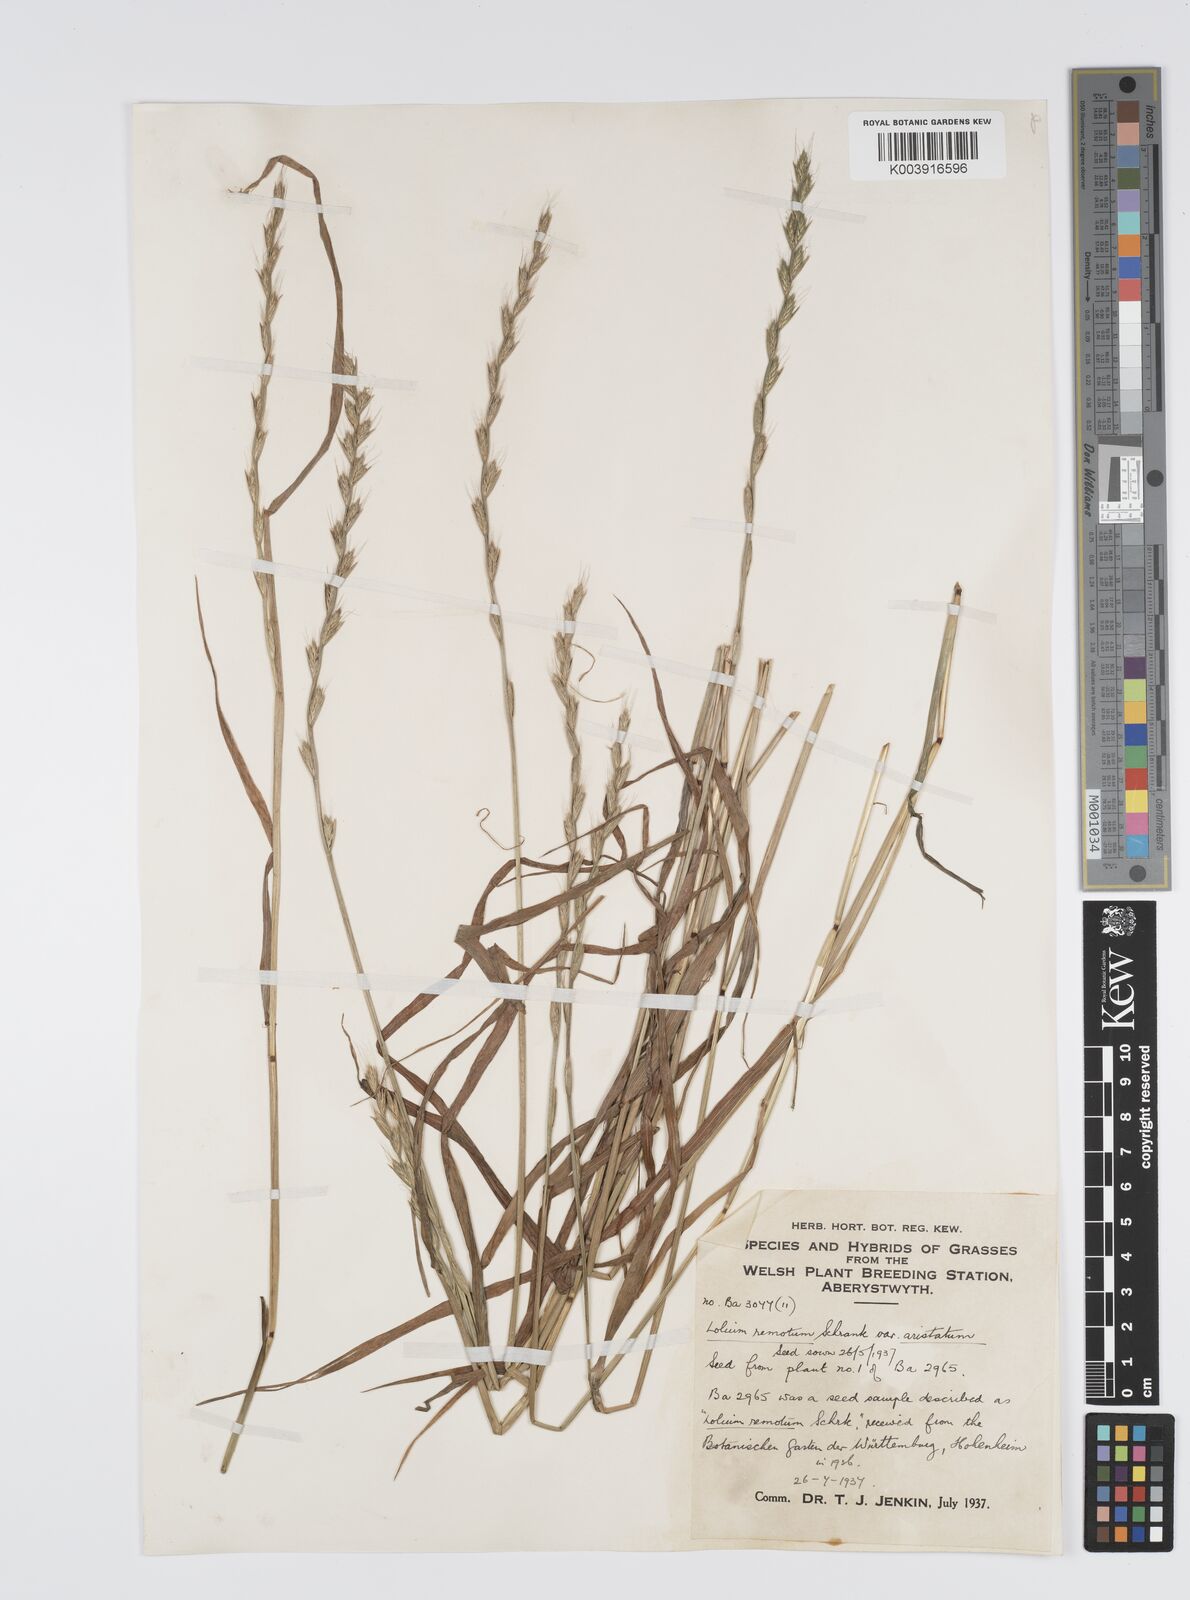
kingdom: Plantae
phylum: Tracheophyta
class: Liliopsida
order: Poales
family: Poaceae
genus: Lolium
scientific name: Lolium remotum
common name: Flaxfield rye-grass
